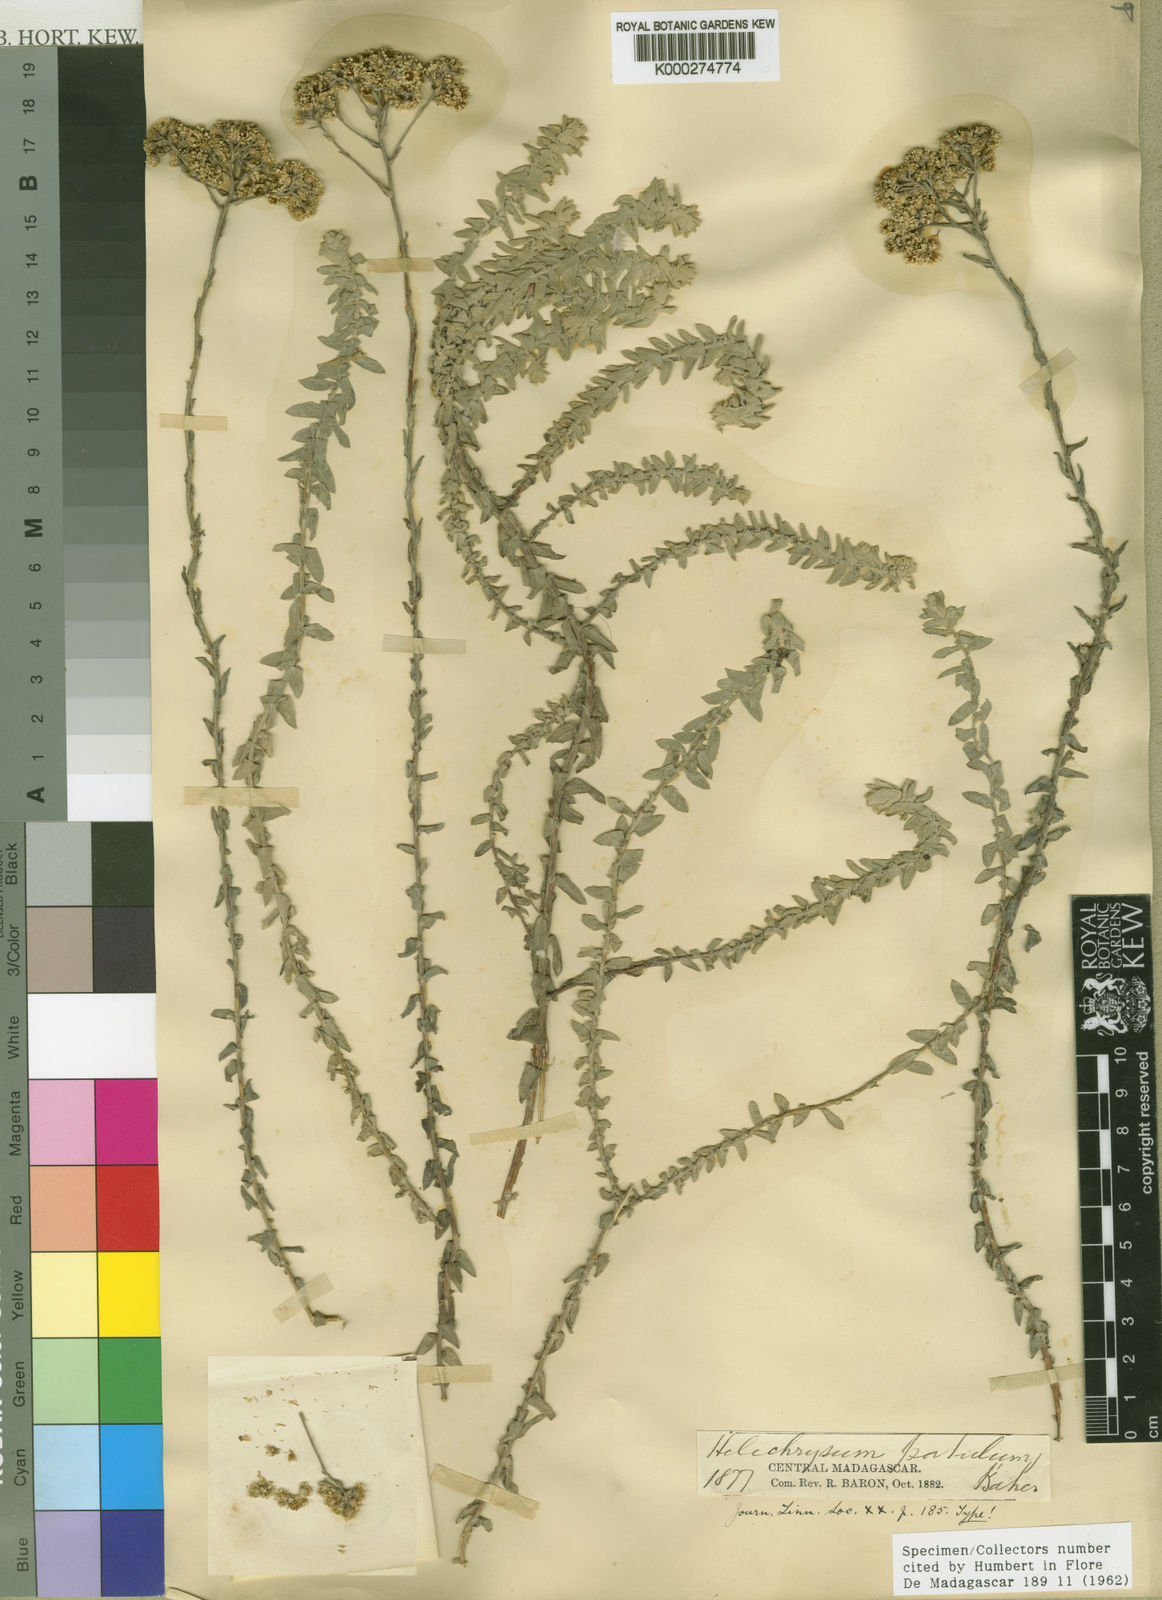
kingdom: Plantae
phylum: Tracheophyta
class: Magnoliopsida
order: Asterales
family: Asteraceae
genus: Helichrysum
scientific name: Helichrysum
